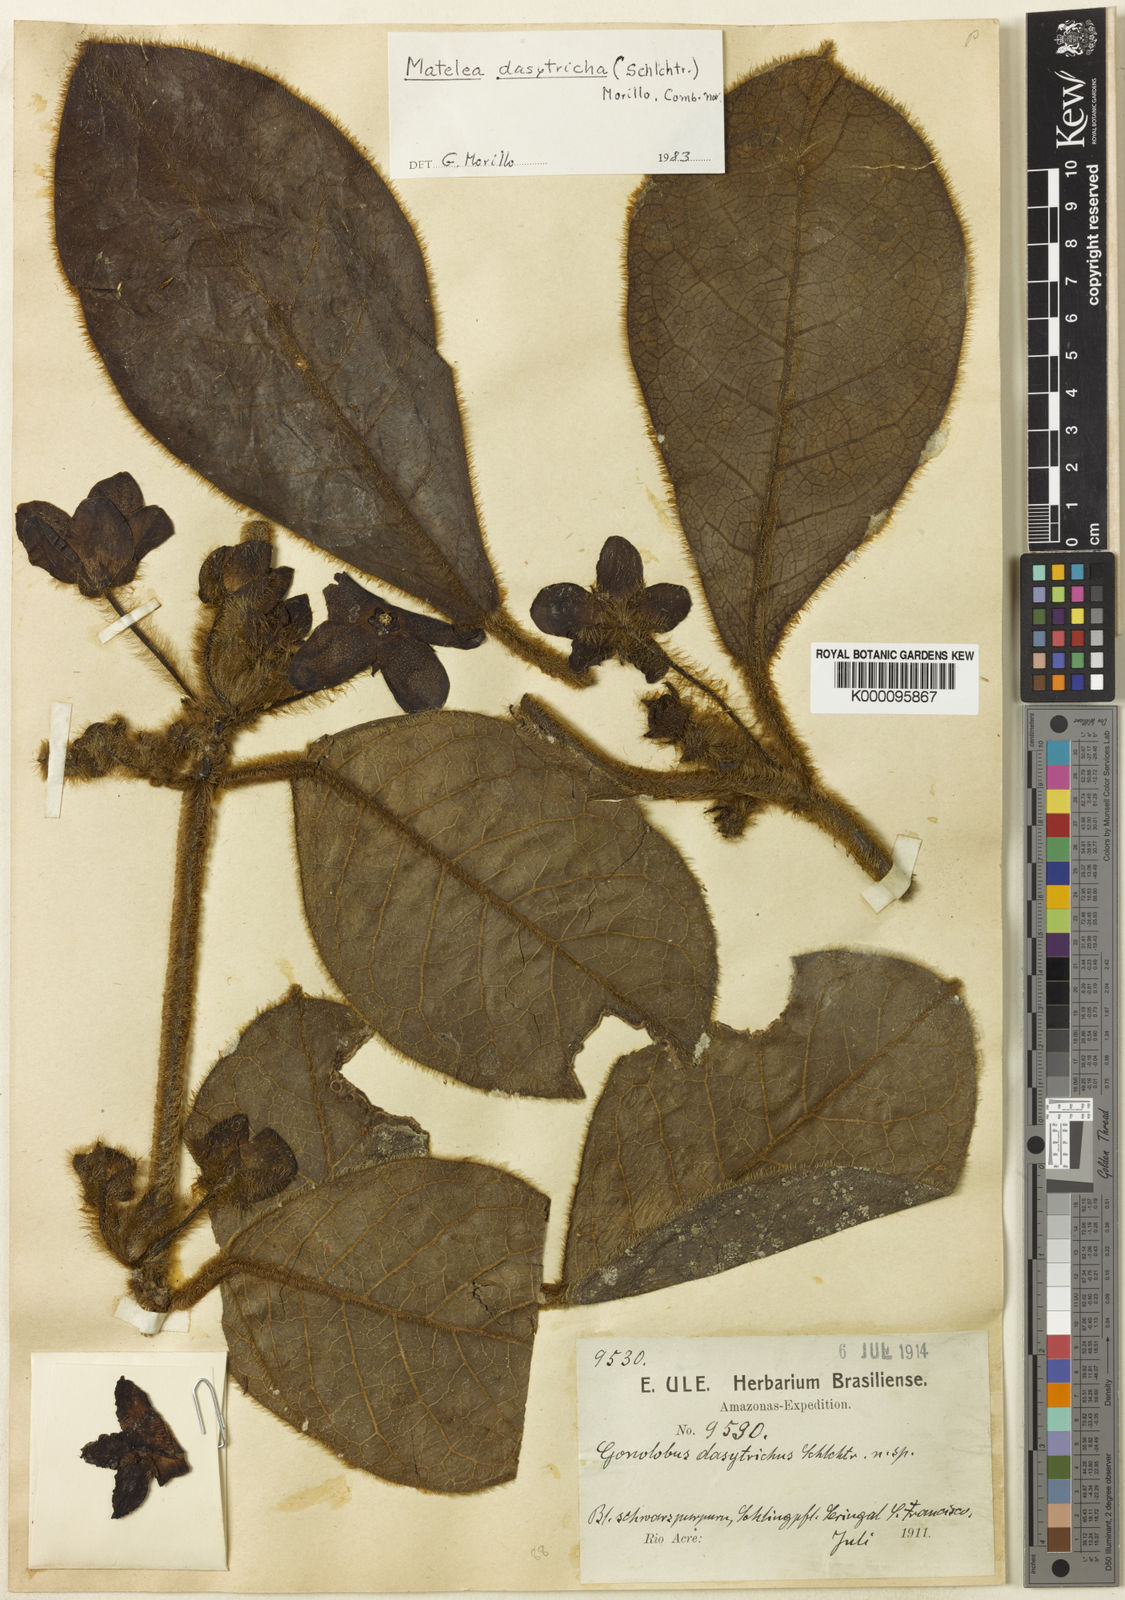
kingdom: Plantae
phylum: Tracheophyta
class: Magnoliopsida
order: Gentianales
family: Apocynaceae
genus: Pruskortizia
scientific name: Pruskortizia dasytricha
